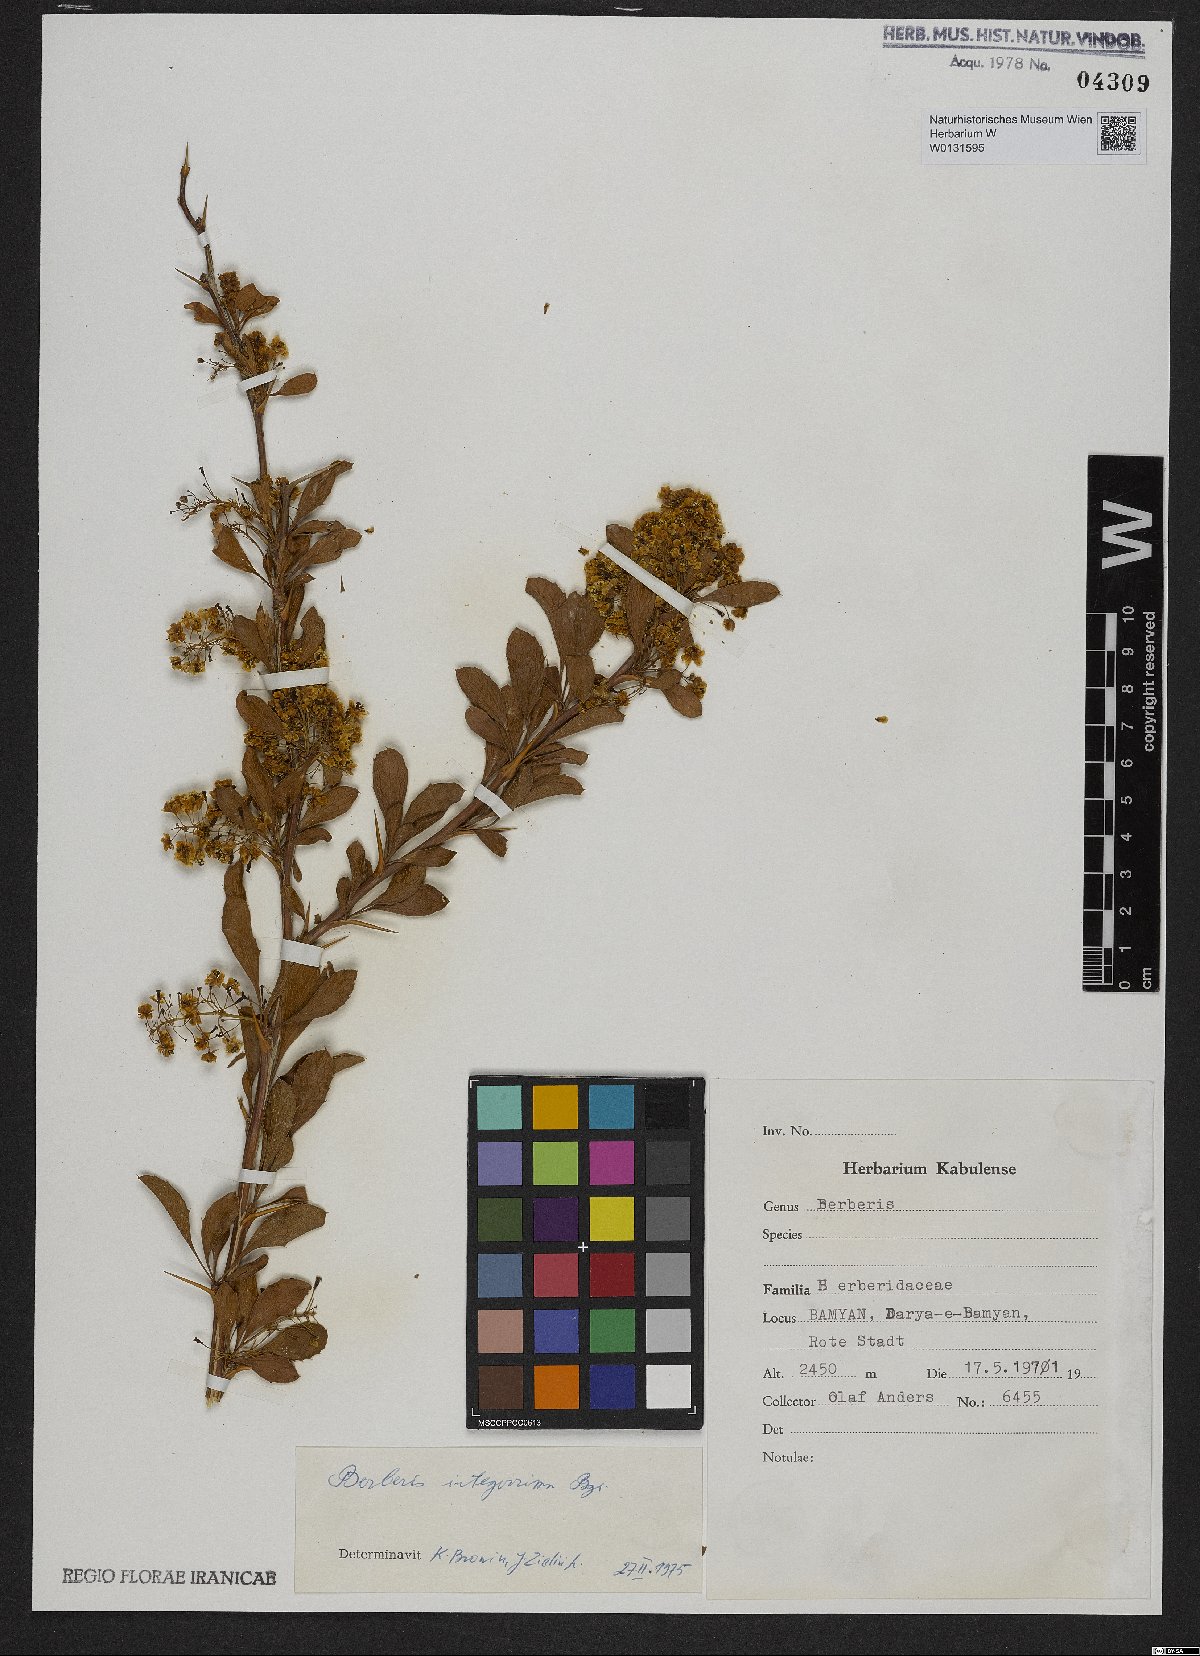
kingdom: Plantae
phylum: Tracheophyta
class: Magnoliopsida
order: Ranunculales
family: Berberidaceae
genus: Berberis
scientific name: Berberis integerrima
